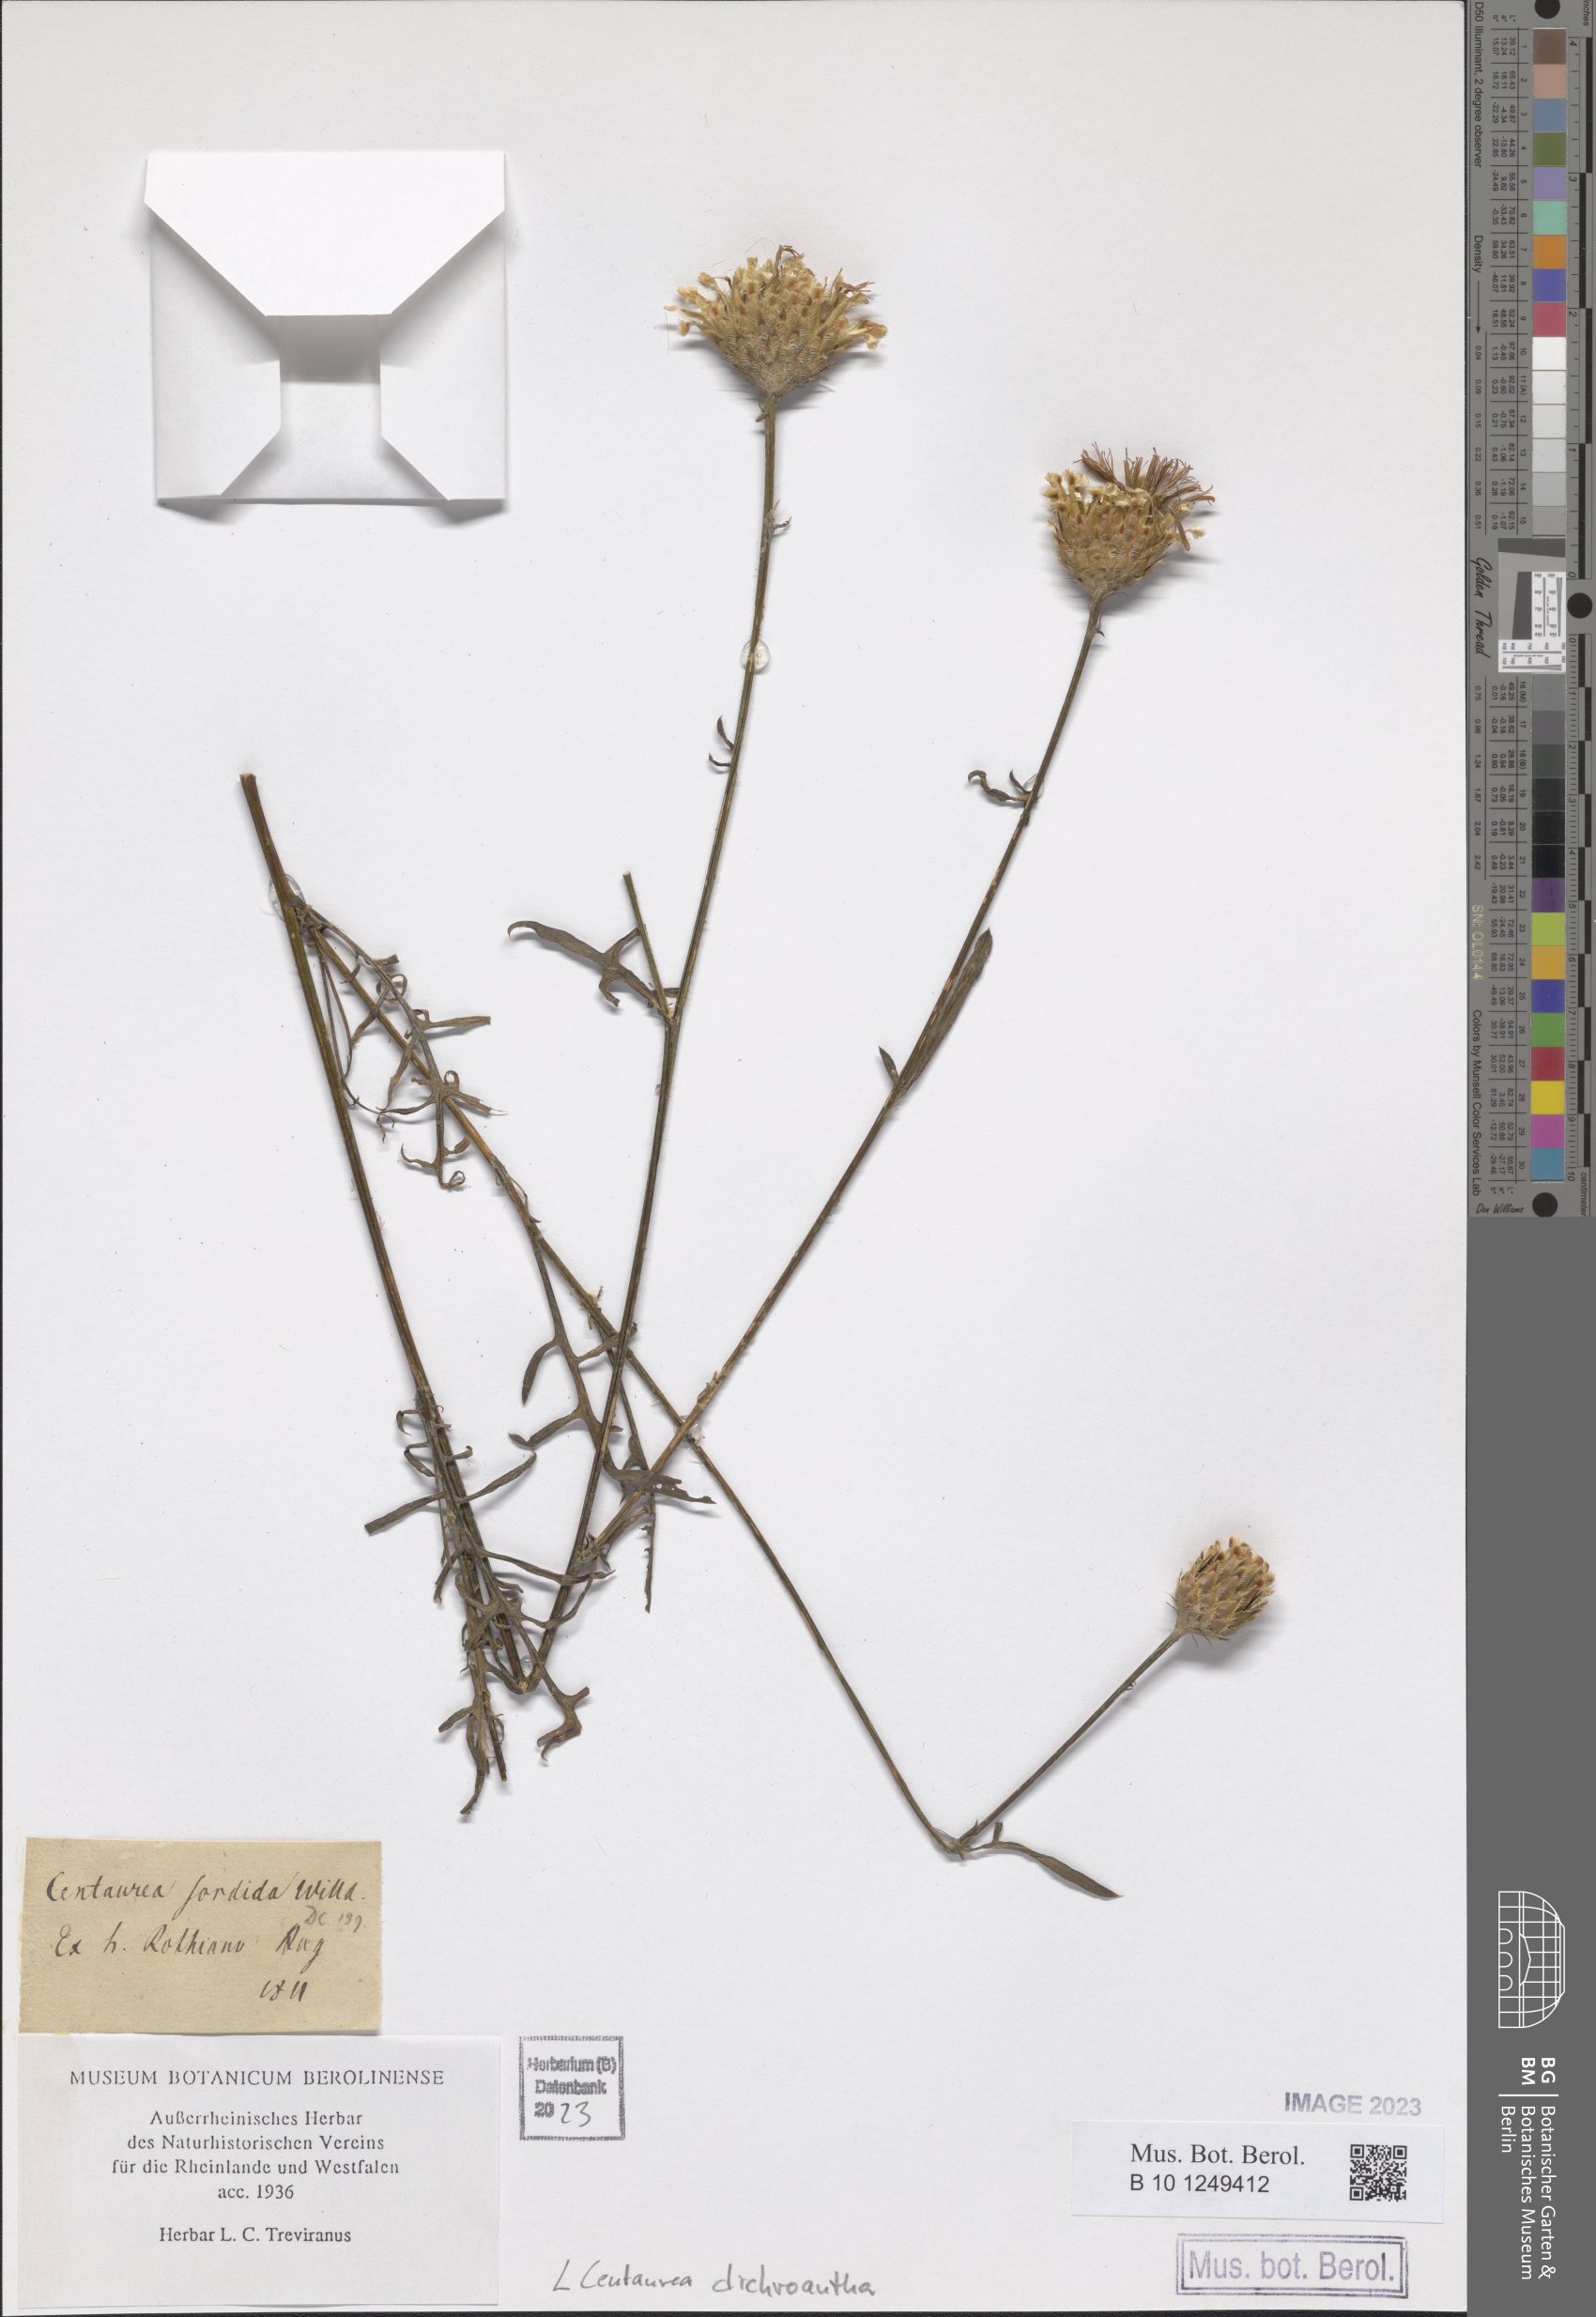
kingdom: Plantae
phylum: Tracheophyta
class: Magnoliopsida
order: Asterales
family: Asteraceae
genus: Centaurea
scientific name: Centaurea dichroantha
